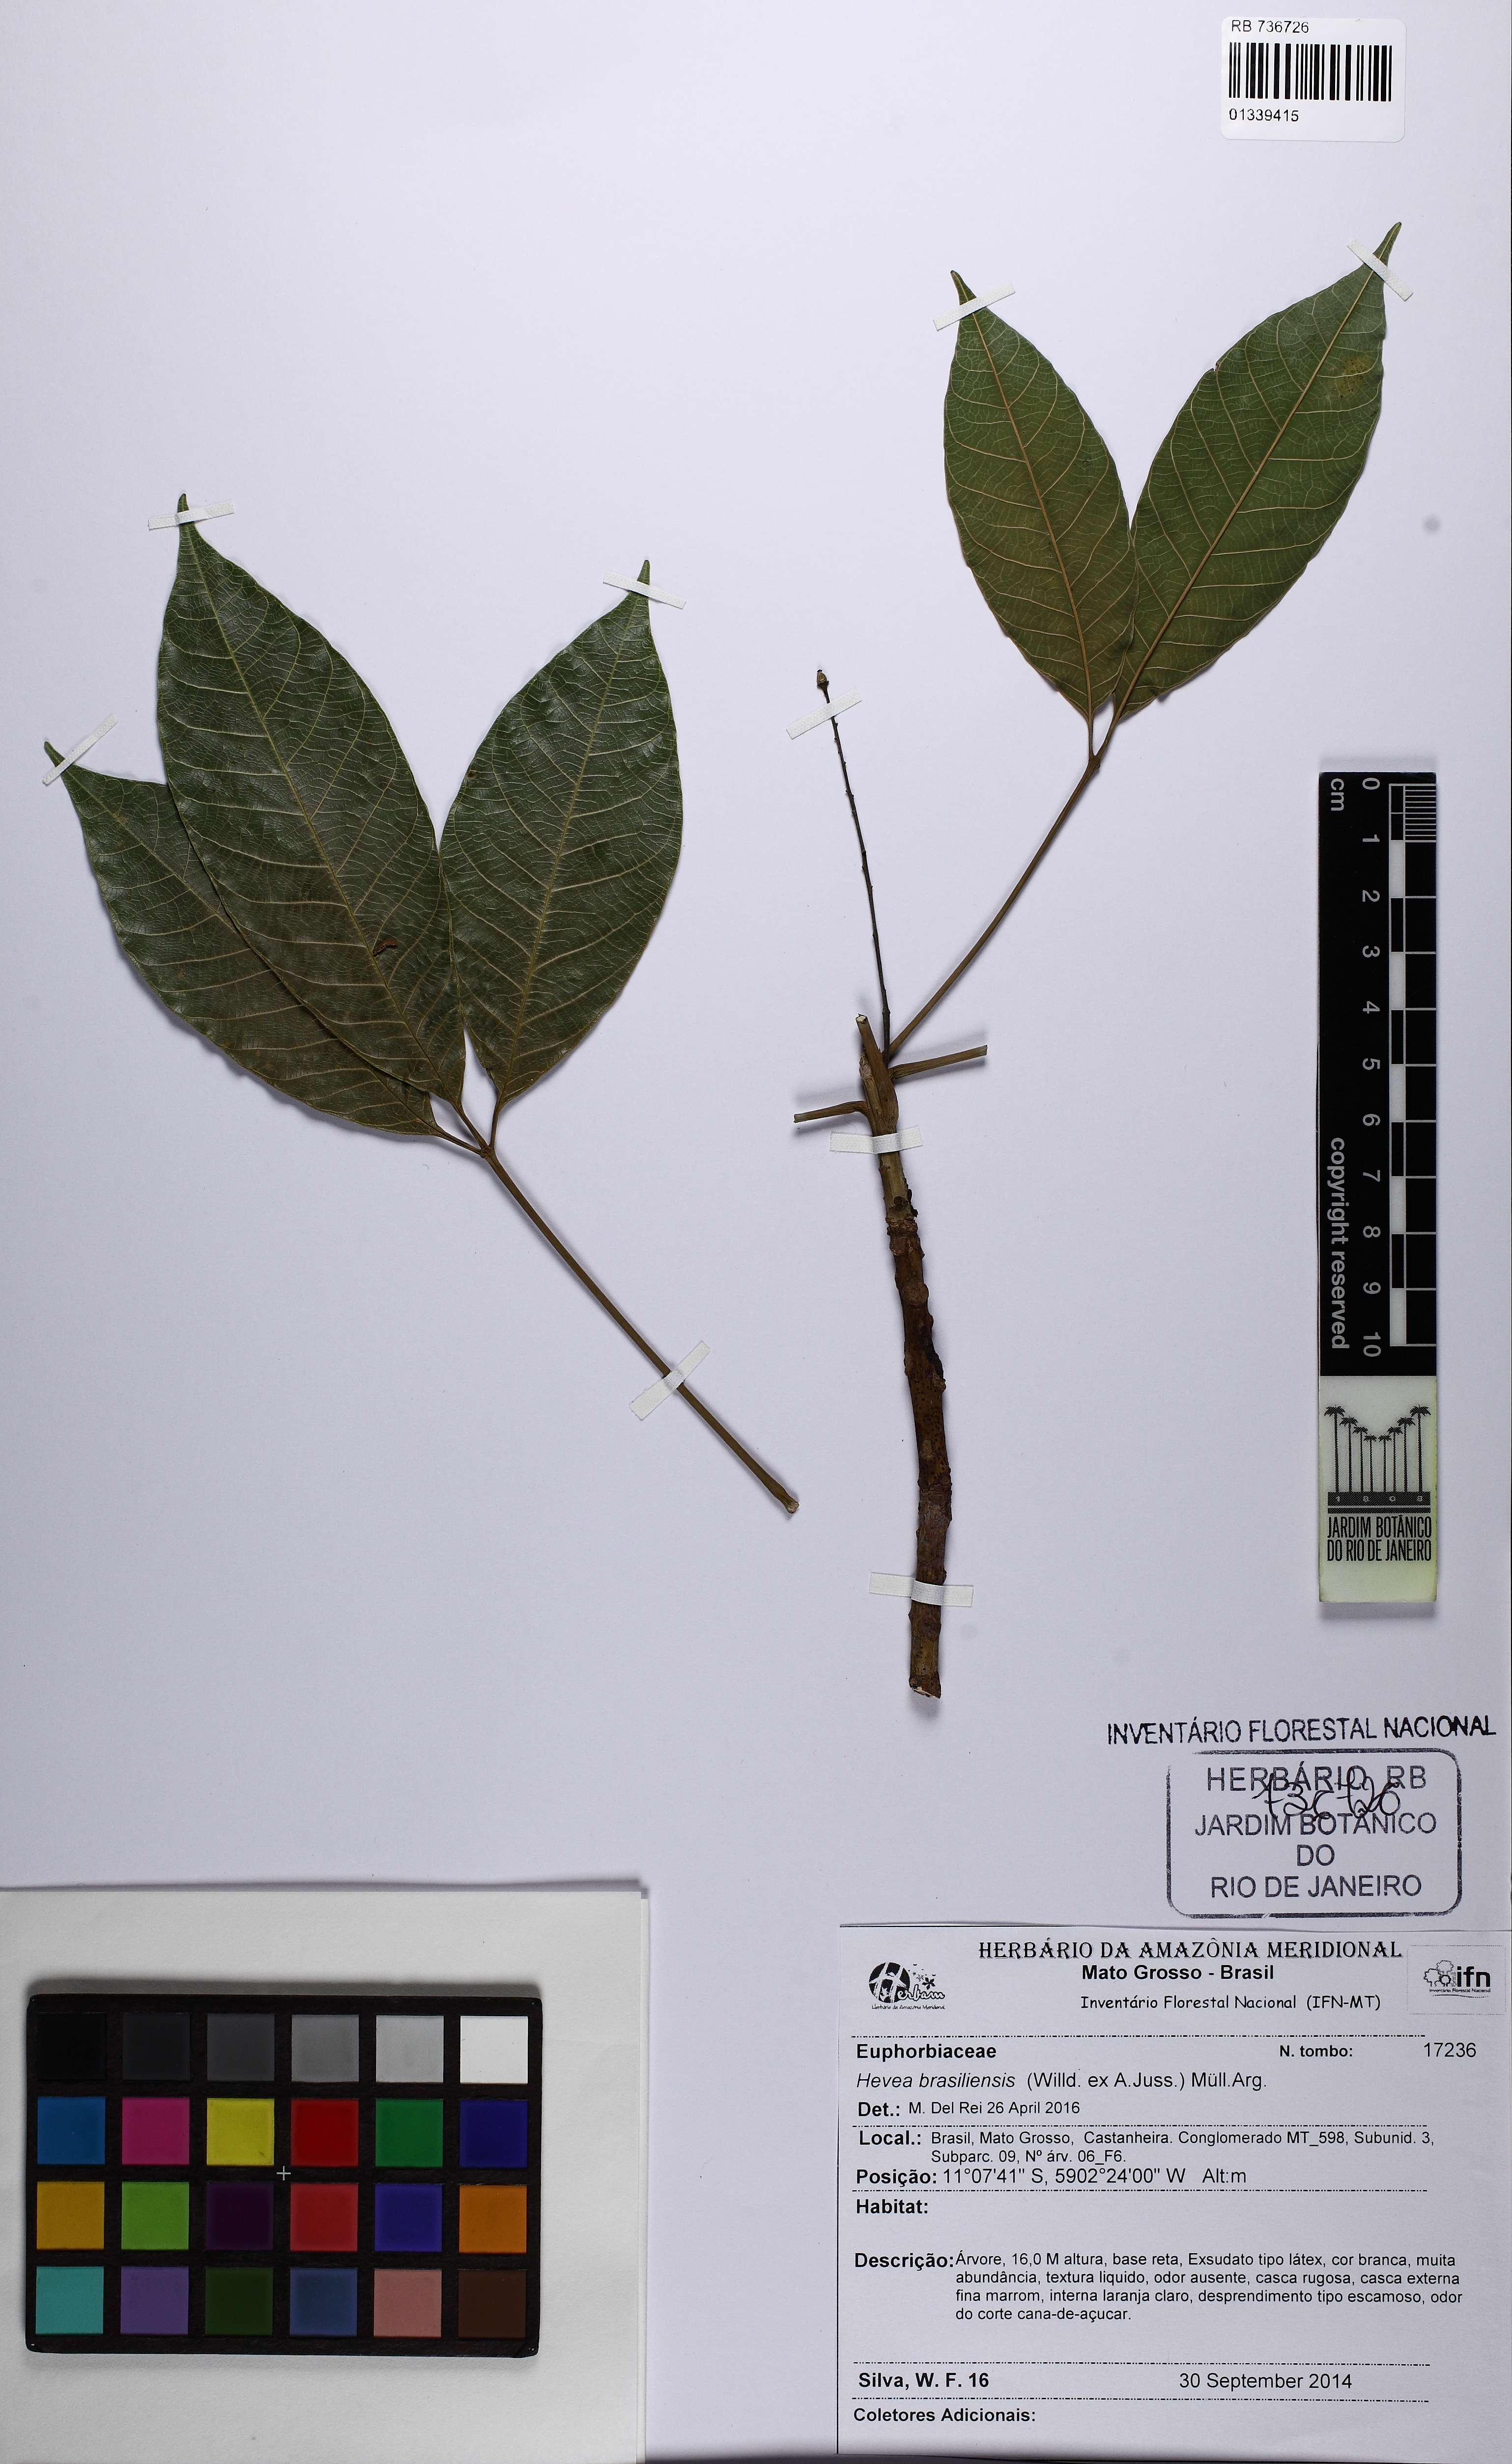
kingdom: Plantae
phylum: Tracheophyta
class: Magnoliopsida
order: Malpighiales
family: Euphorbiaceae
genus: Hevea
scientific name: Hevea brasiliensis
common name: Natural rubber
